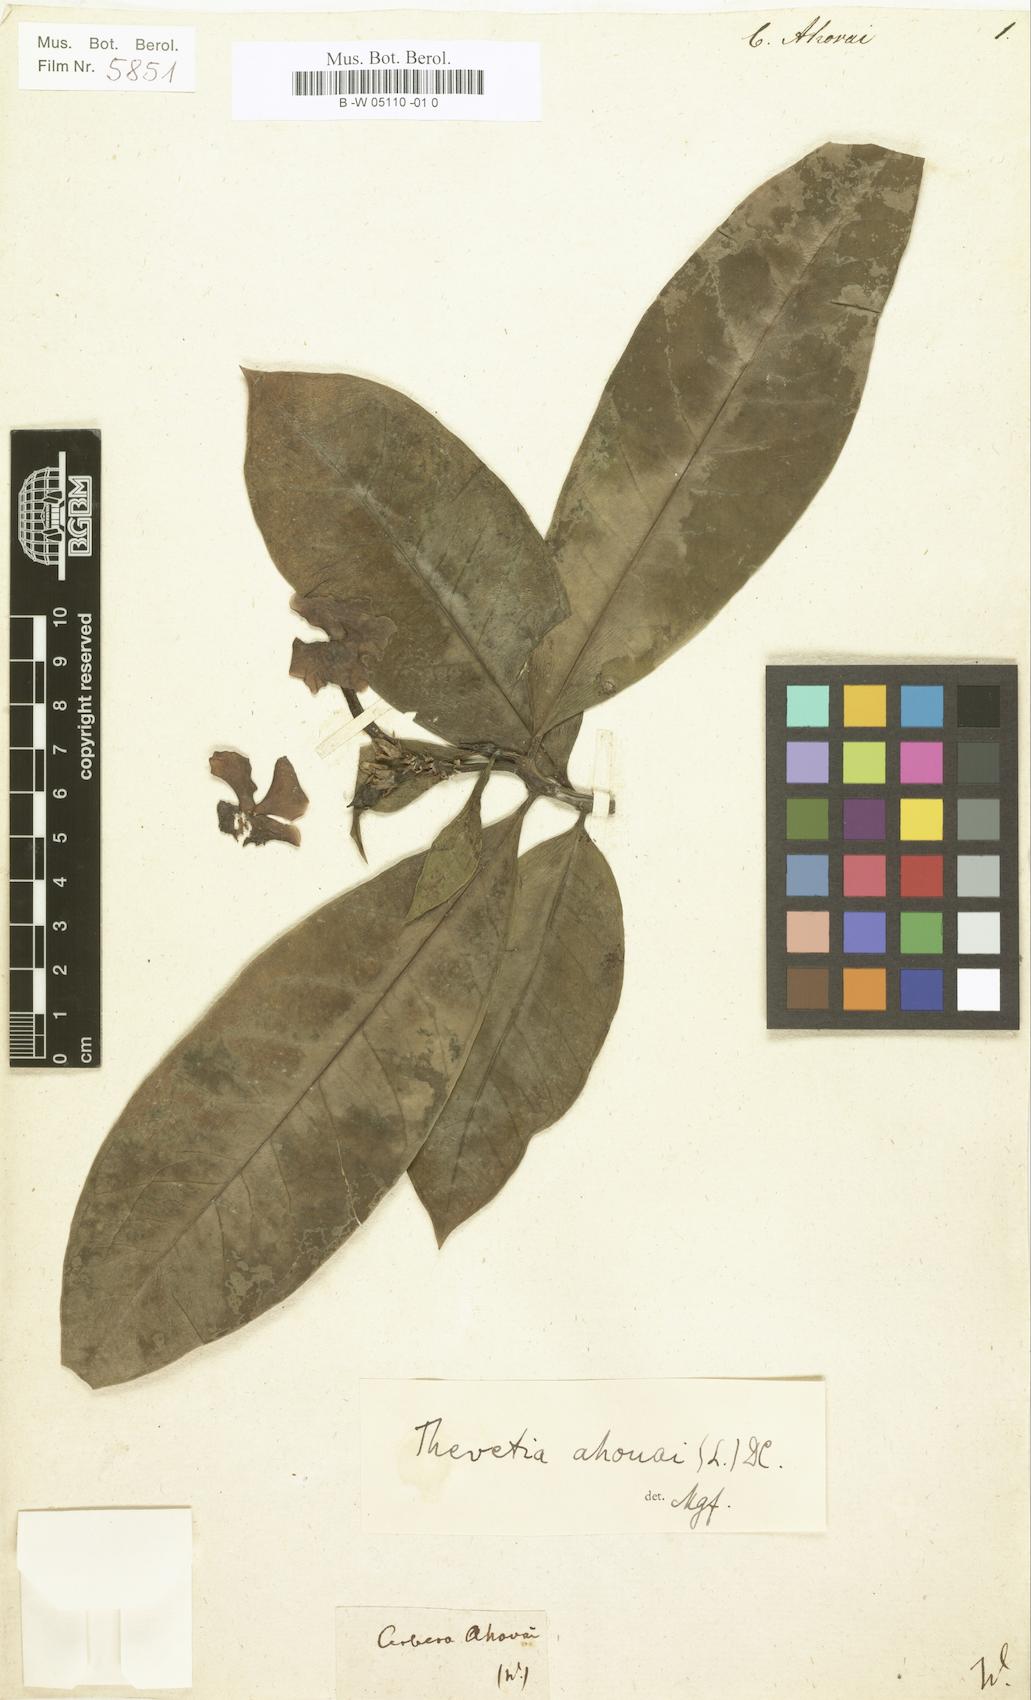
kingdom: Plantae
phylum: Tracheophyta
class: Magnoliopsida
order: Gentianales
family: Apocynaceae
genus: Thevetia
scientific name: Thevetia ahouai
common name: Broadleaf thevetia
